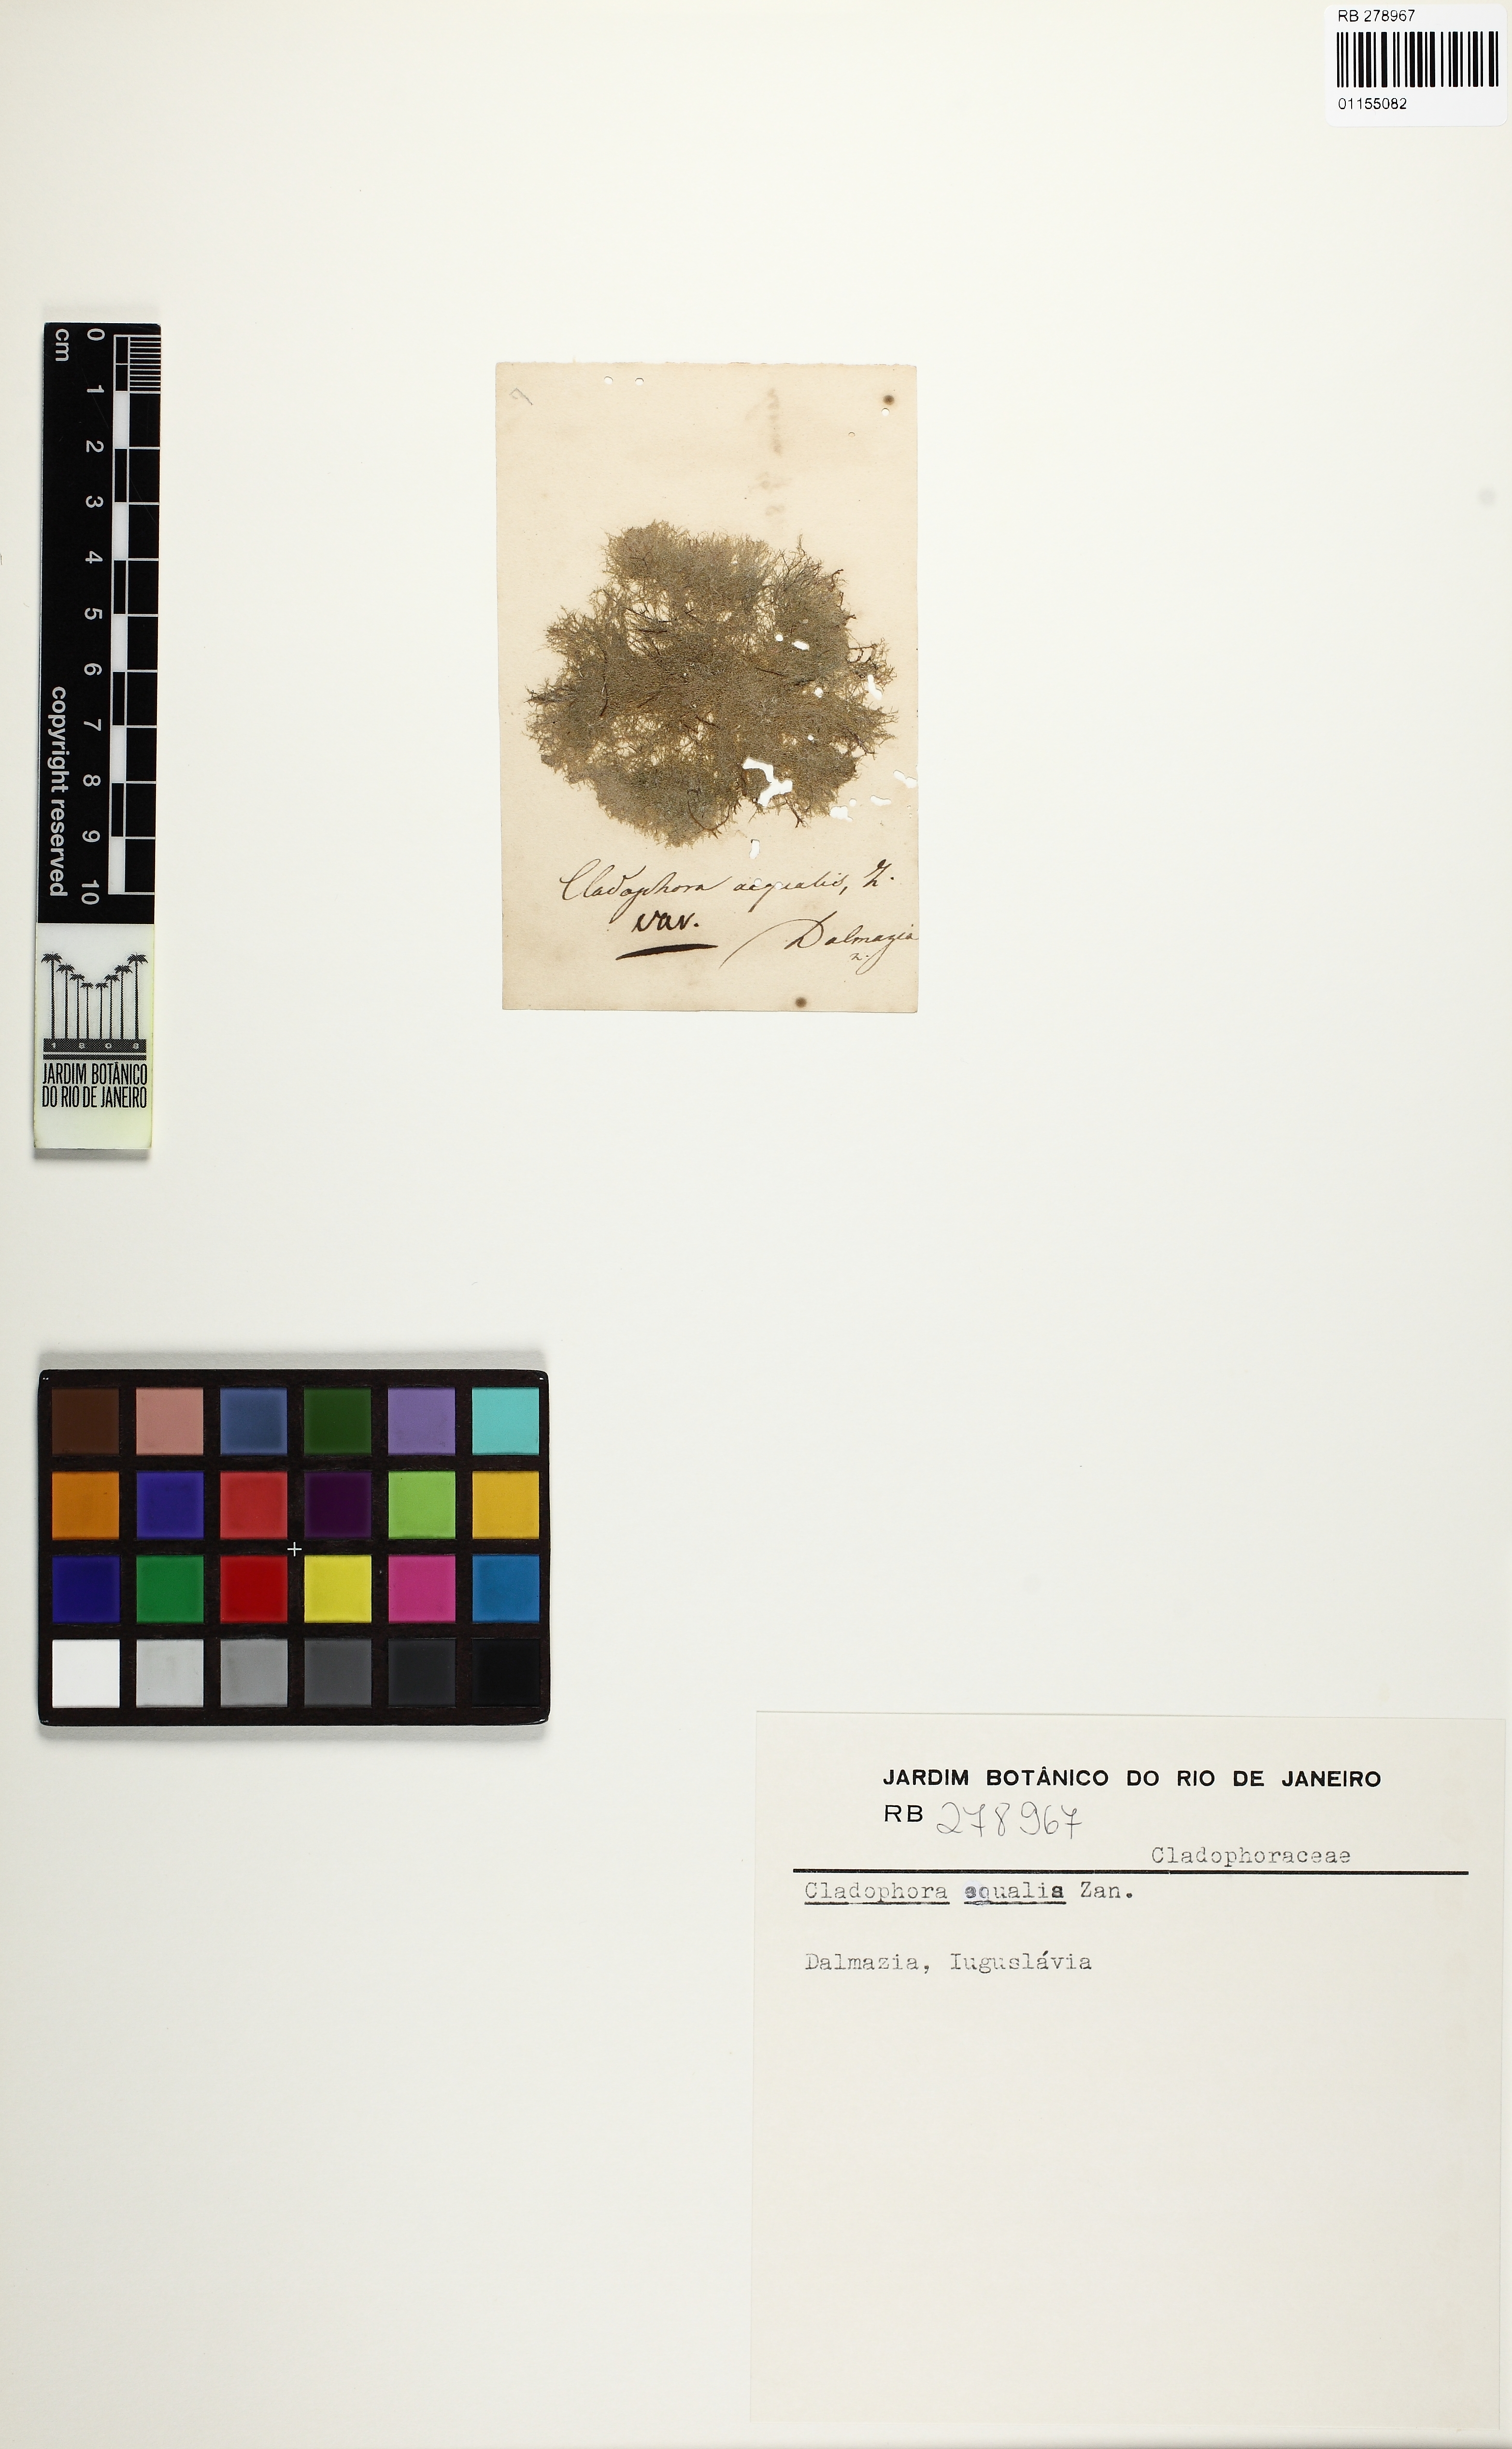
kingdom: Plantae
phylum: Chlorophyta
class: Ulvophyceae
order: Cladophorales
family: Cladophoraceae
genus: Cladophora
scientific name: Cladophora
